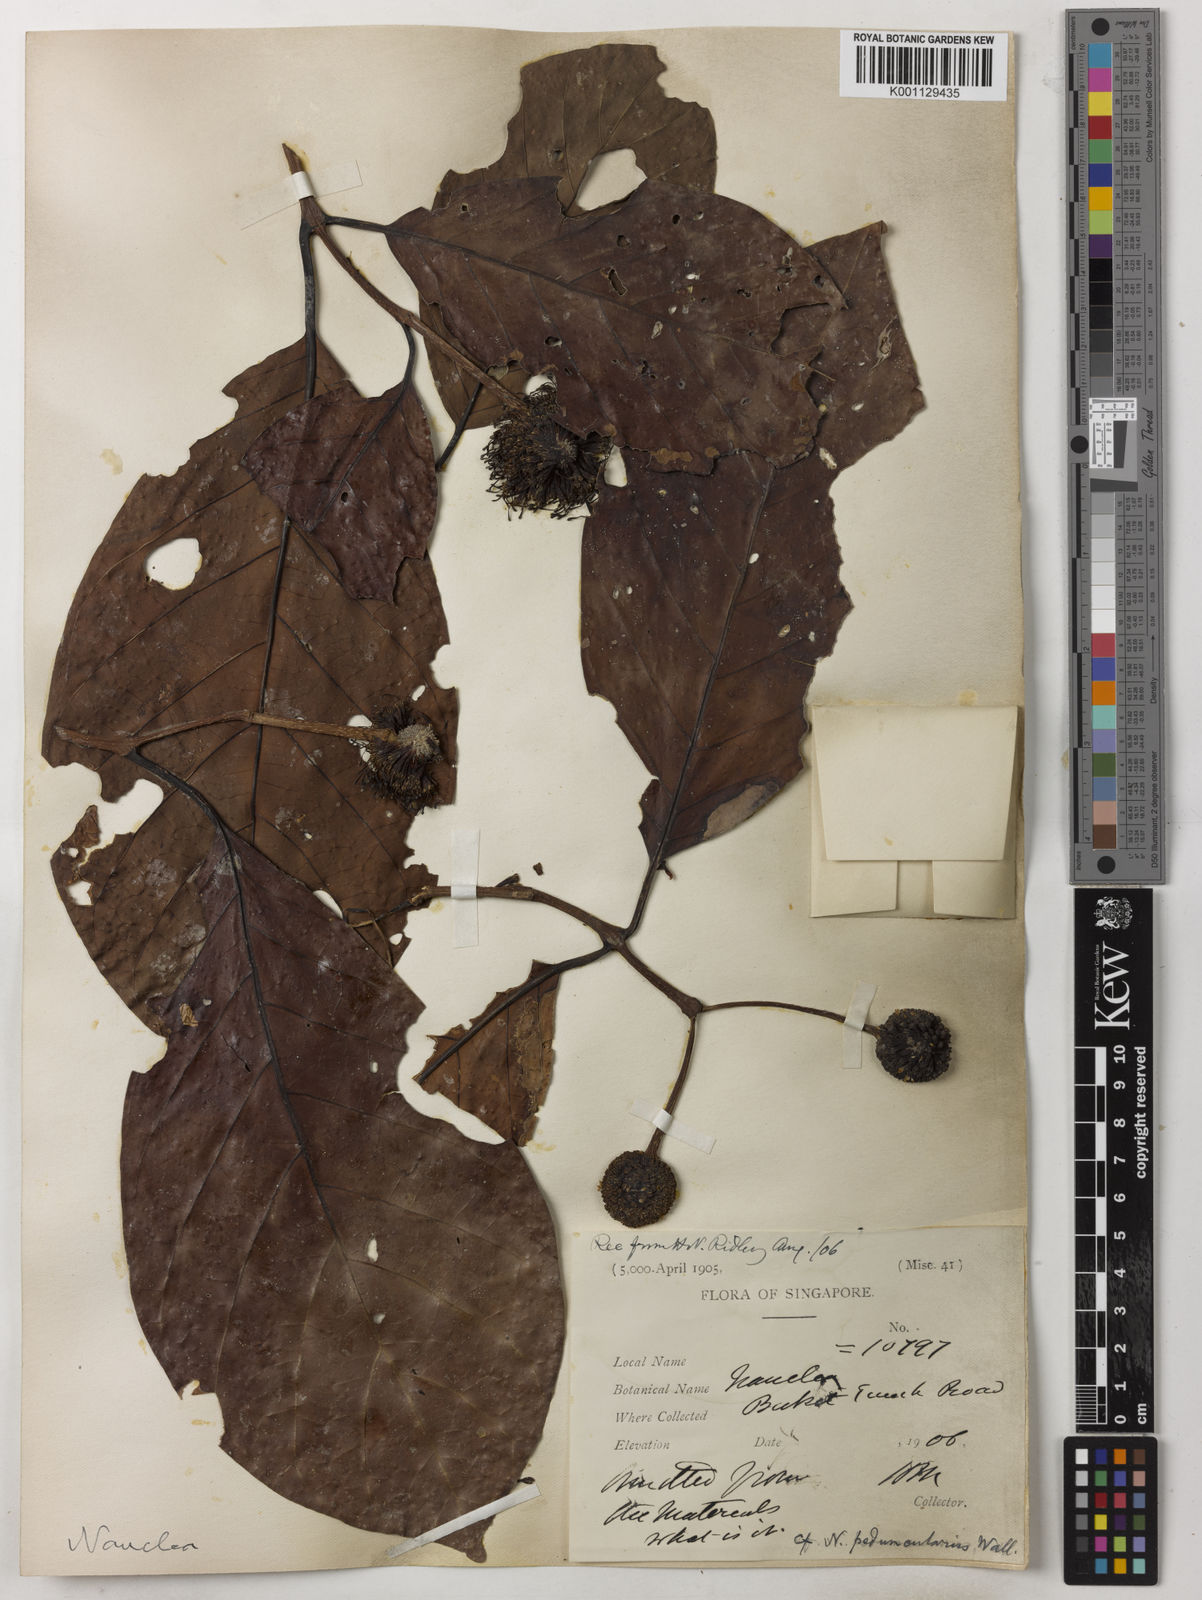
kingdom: Plantae
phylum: Tracheophyta
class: Magnoliopsida
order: Gentianales
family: Rubiaceae
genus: Neonauclea
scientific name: Neonauclea calycina
